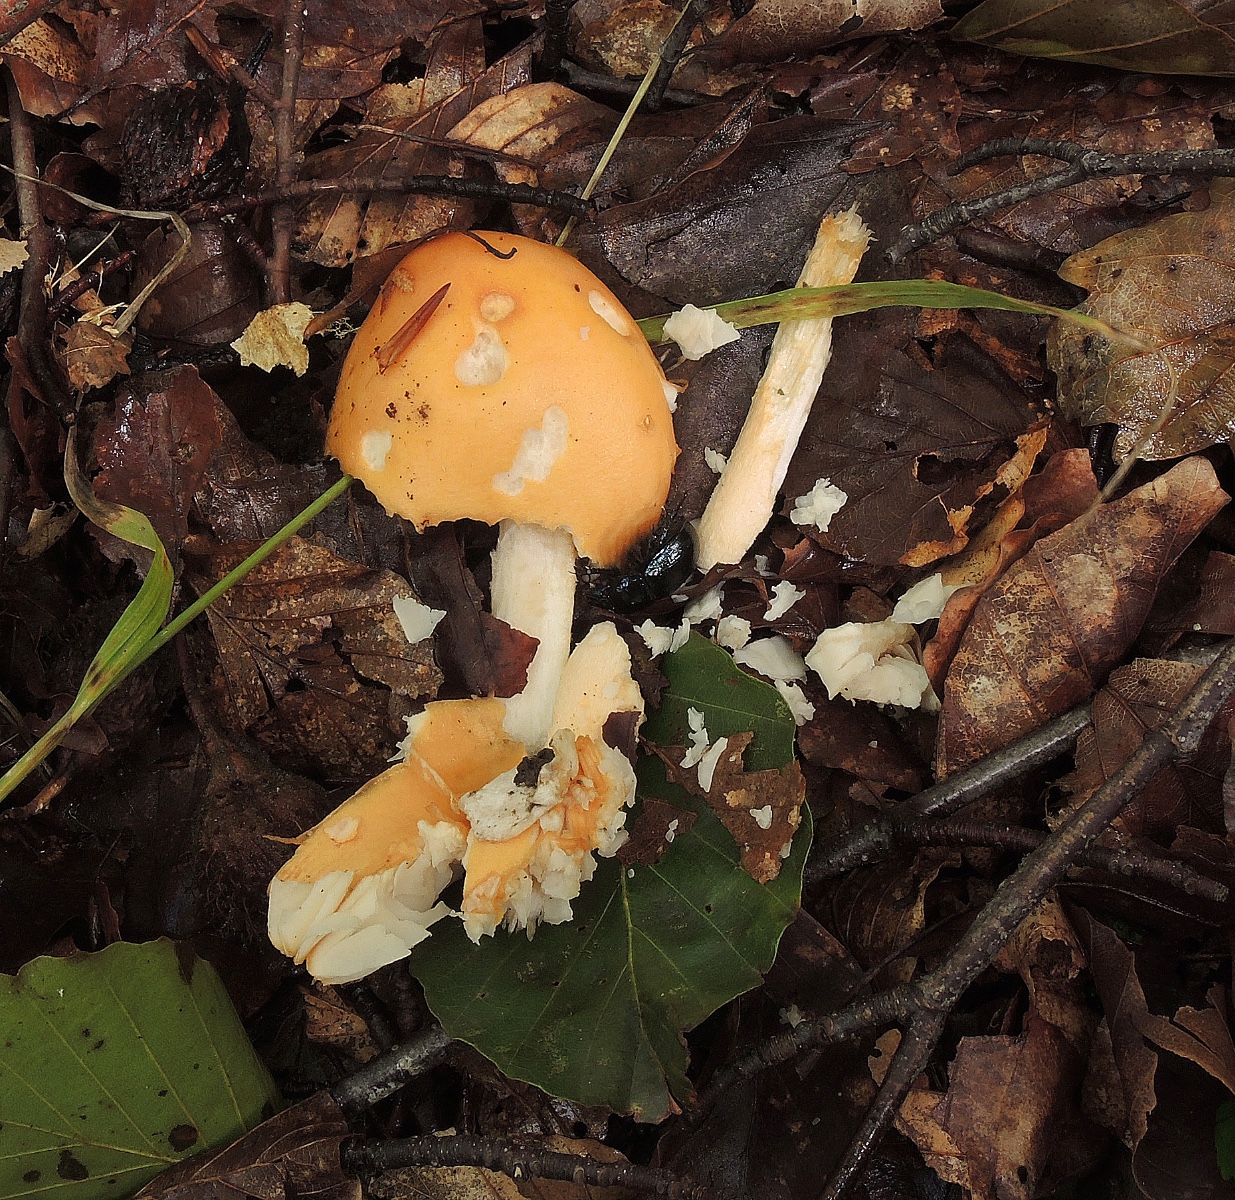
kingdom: Fungi
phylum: Basidiomycota
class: Agaricomycetes
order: Agaricales
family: Amanitaceae
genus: Amanita
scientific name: Amanita crocea
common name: gylden kam-fluesvamp
